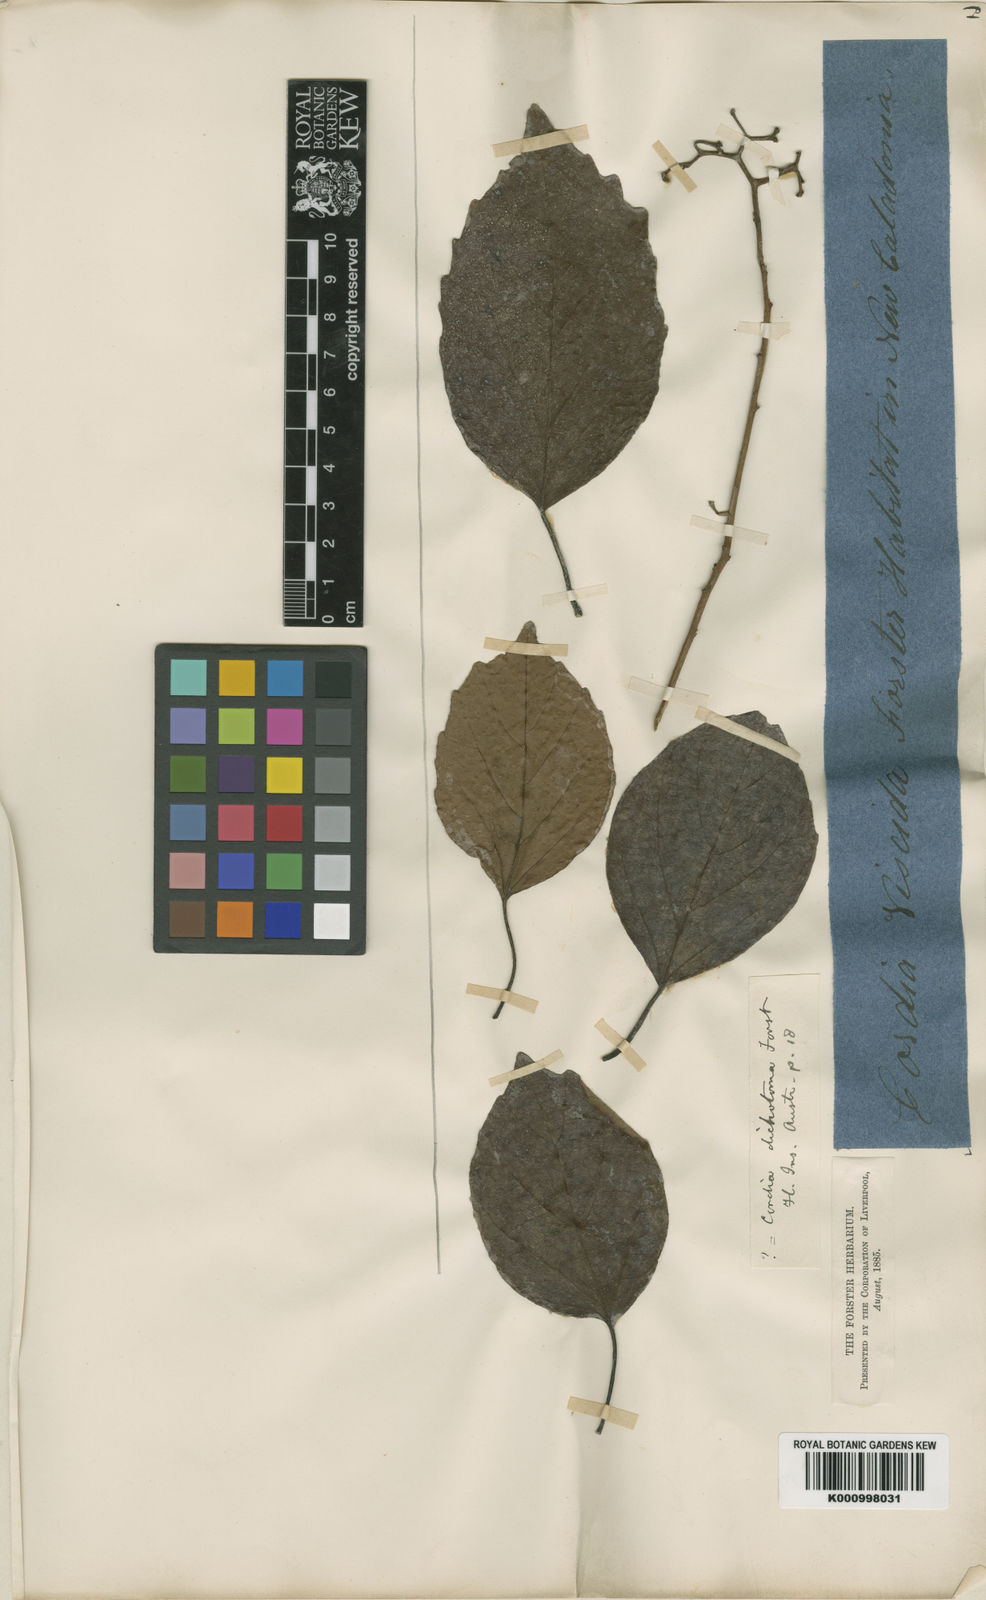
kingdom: Plantae
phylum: Tracheophyta
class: Magnoliopsida
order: Boraginales
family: Cordiaceae
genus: Cordia
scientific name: Cordia monoica
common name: Snot berry
